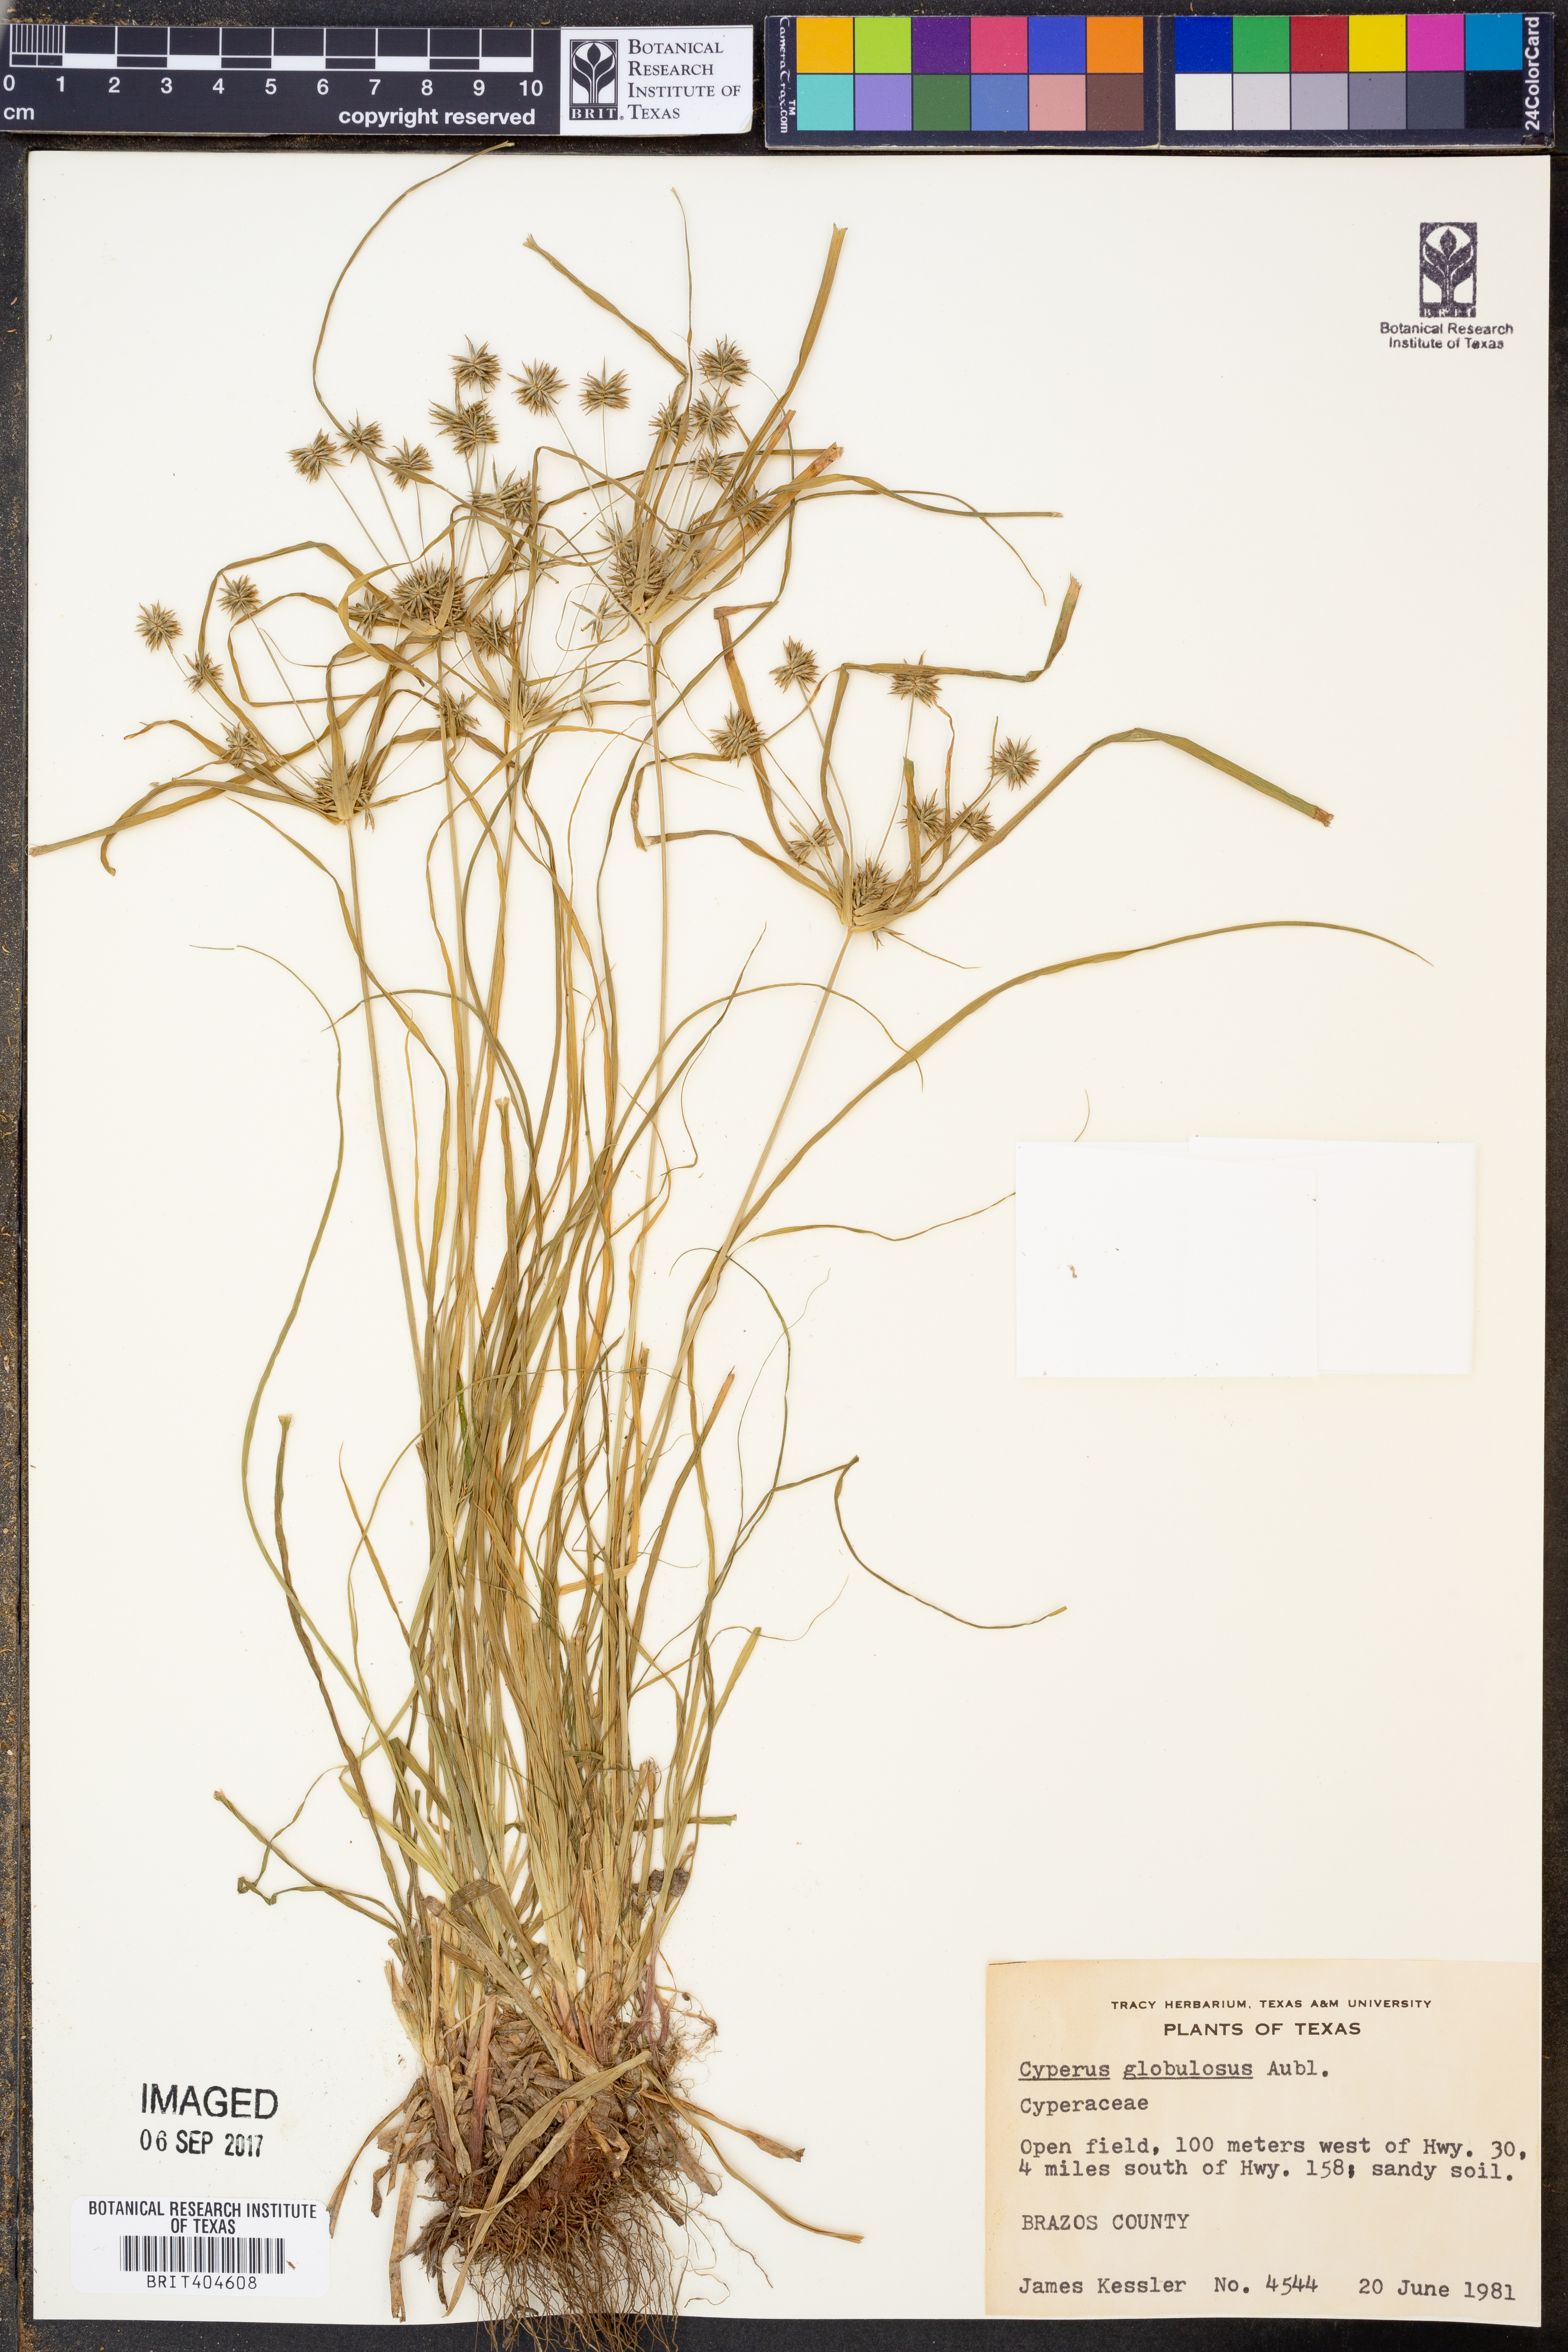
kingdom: Plantae
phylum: Tracheophyta
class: Liliopsida
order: Poales
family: Cyperaceae
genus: Cyperus
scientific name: Cyperus luzulae
